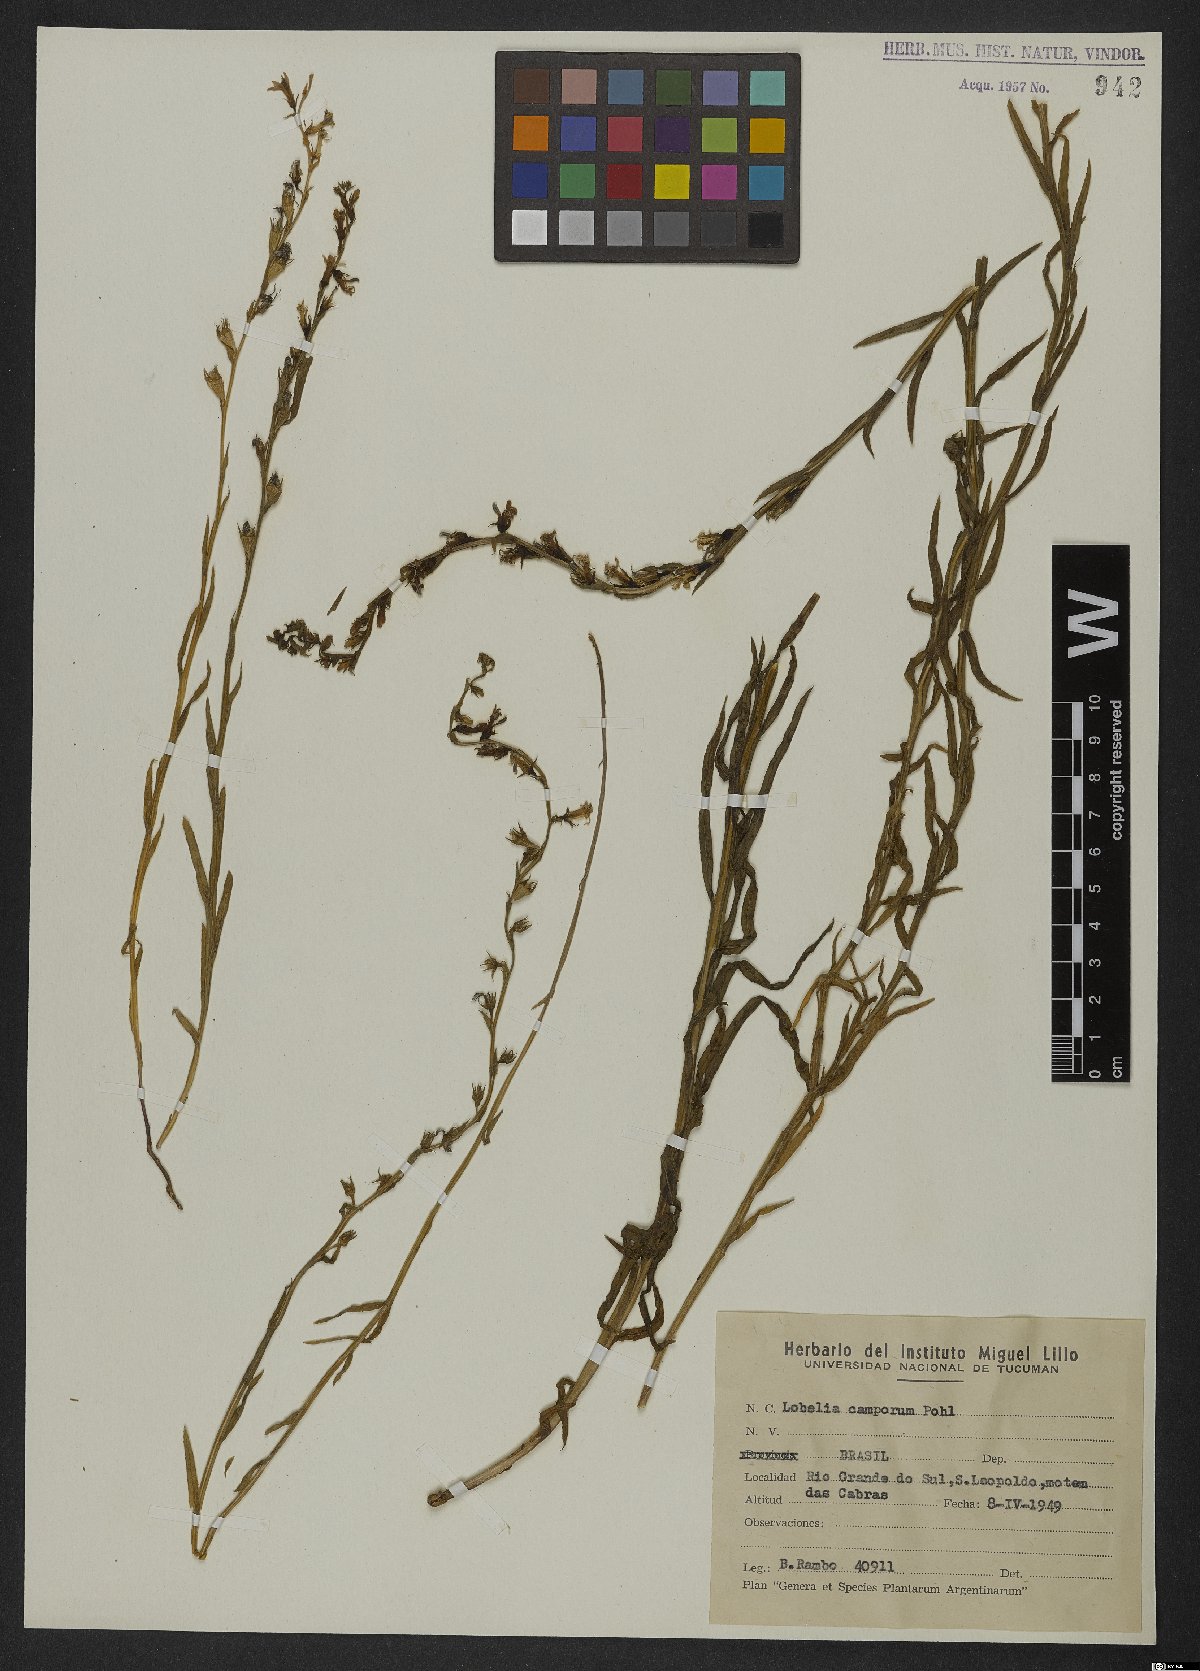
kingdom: Plantae
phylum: Tracheophyta
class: Magnoliopsida
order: Asterales
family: Campanulaceae
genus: Lobelia
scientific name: Lobelia camporum
